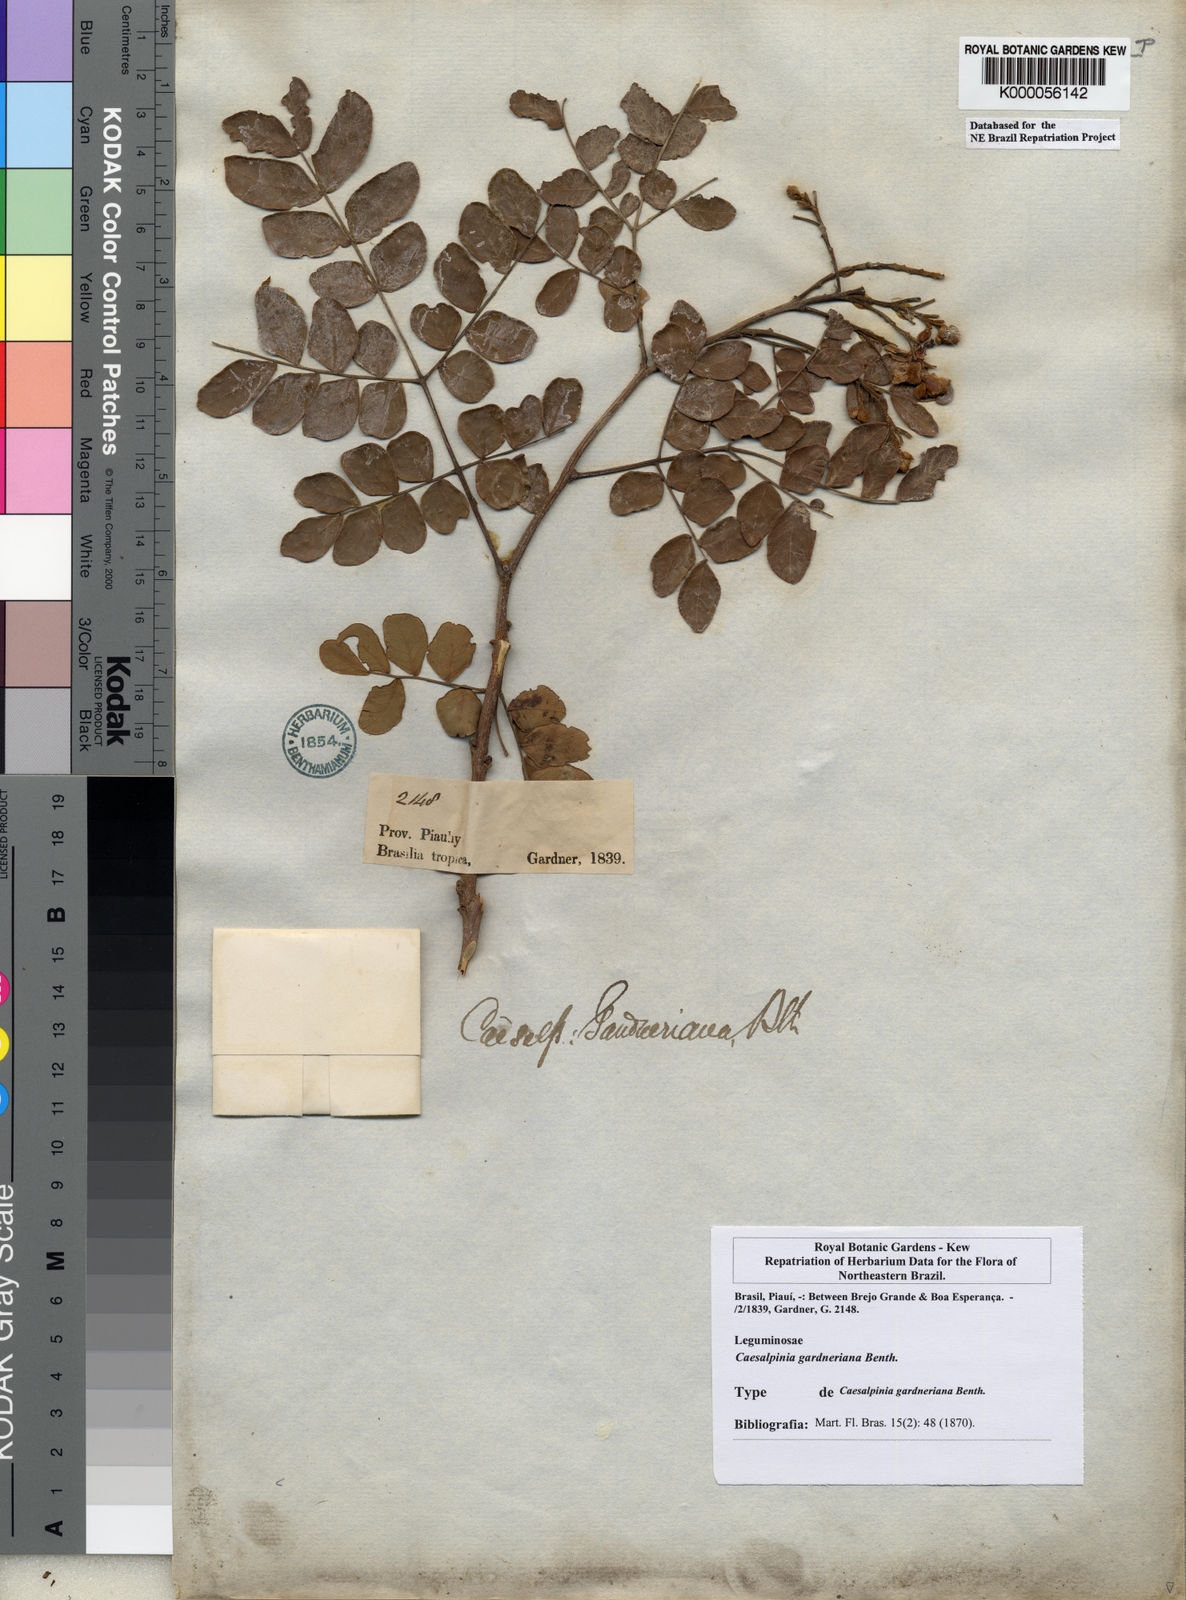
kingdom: Plantae
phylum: Tracheophyta
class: Magnoliopsida
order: Fabales
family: Fabaceae
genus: Cenostigma
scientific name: Cenostigma nordestinum
